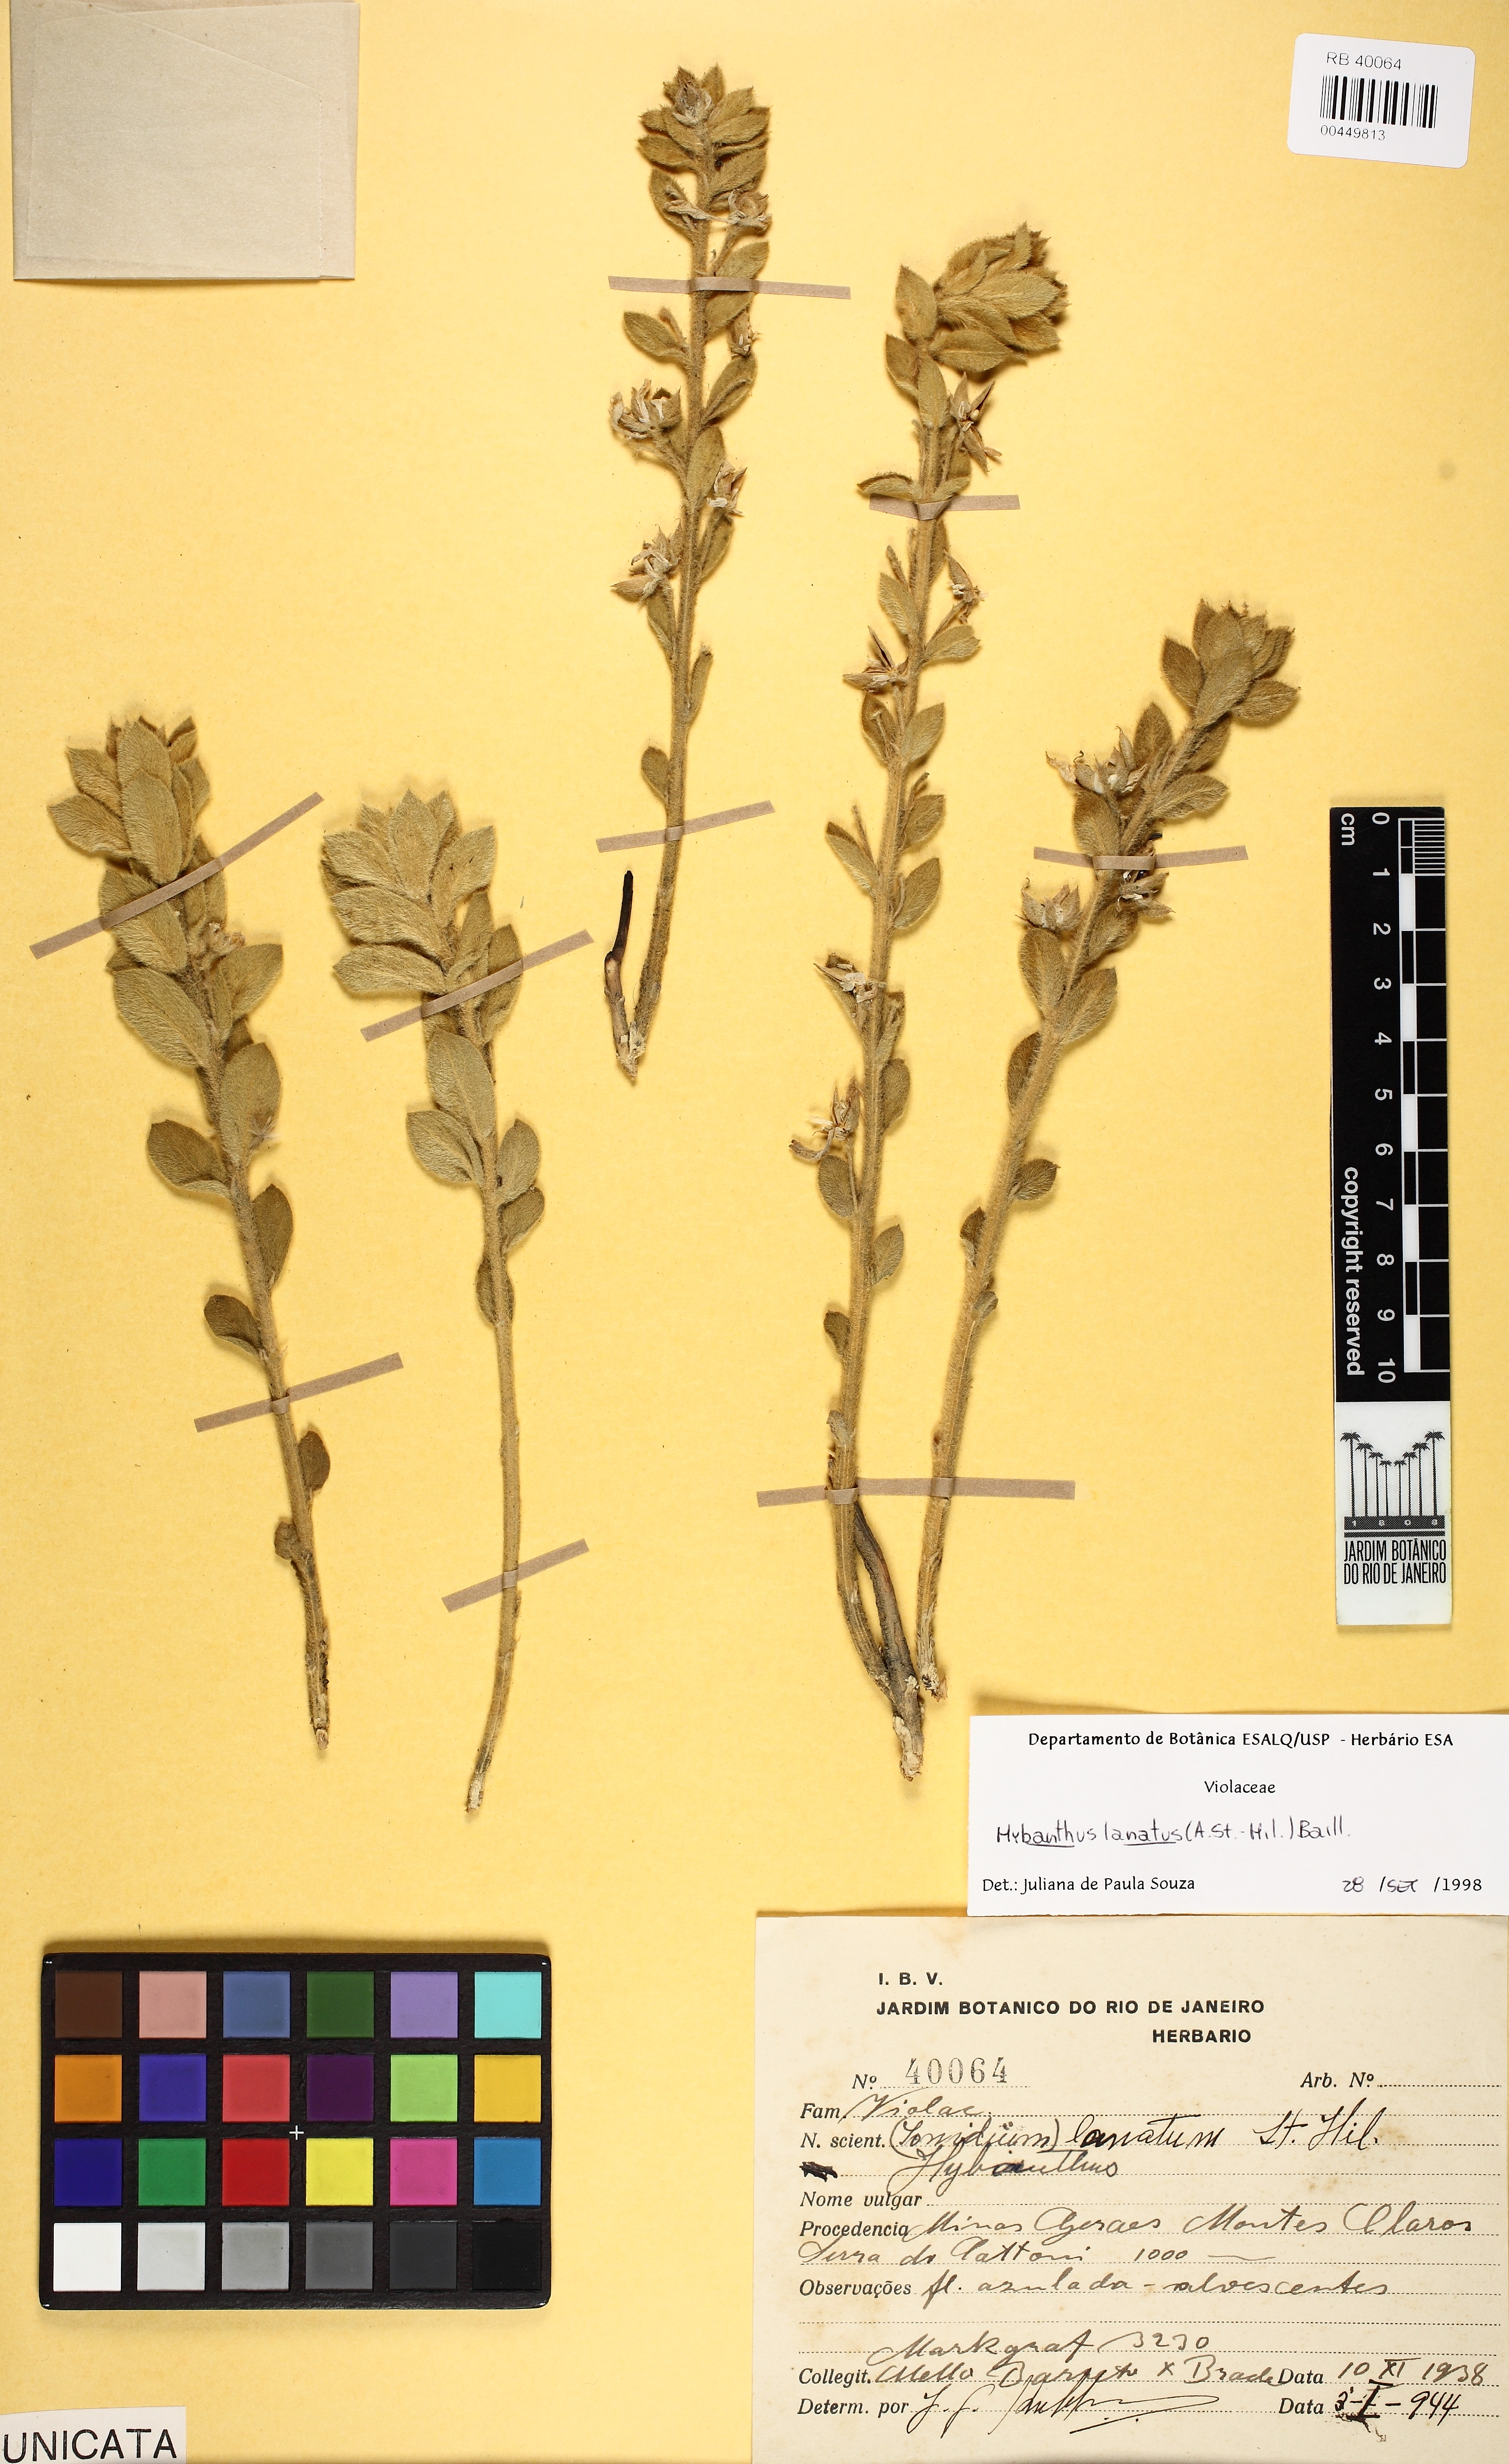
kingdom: Plantae
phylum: Tracheophyta
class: Magnoliopsida
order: Malpighiales
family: Violaceae
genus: Pombalia
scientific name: Pombalia lanata
